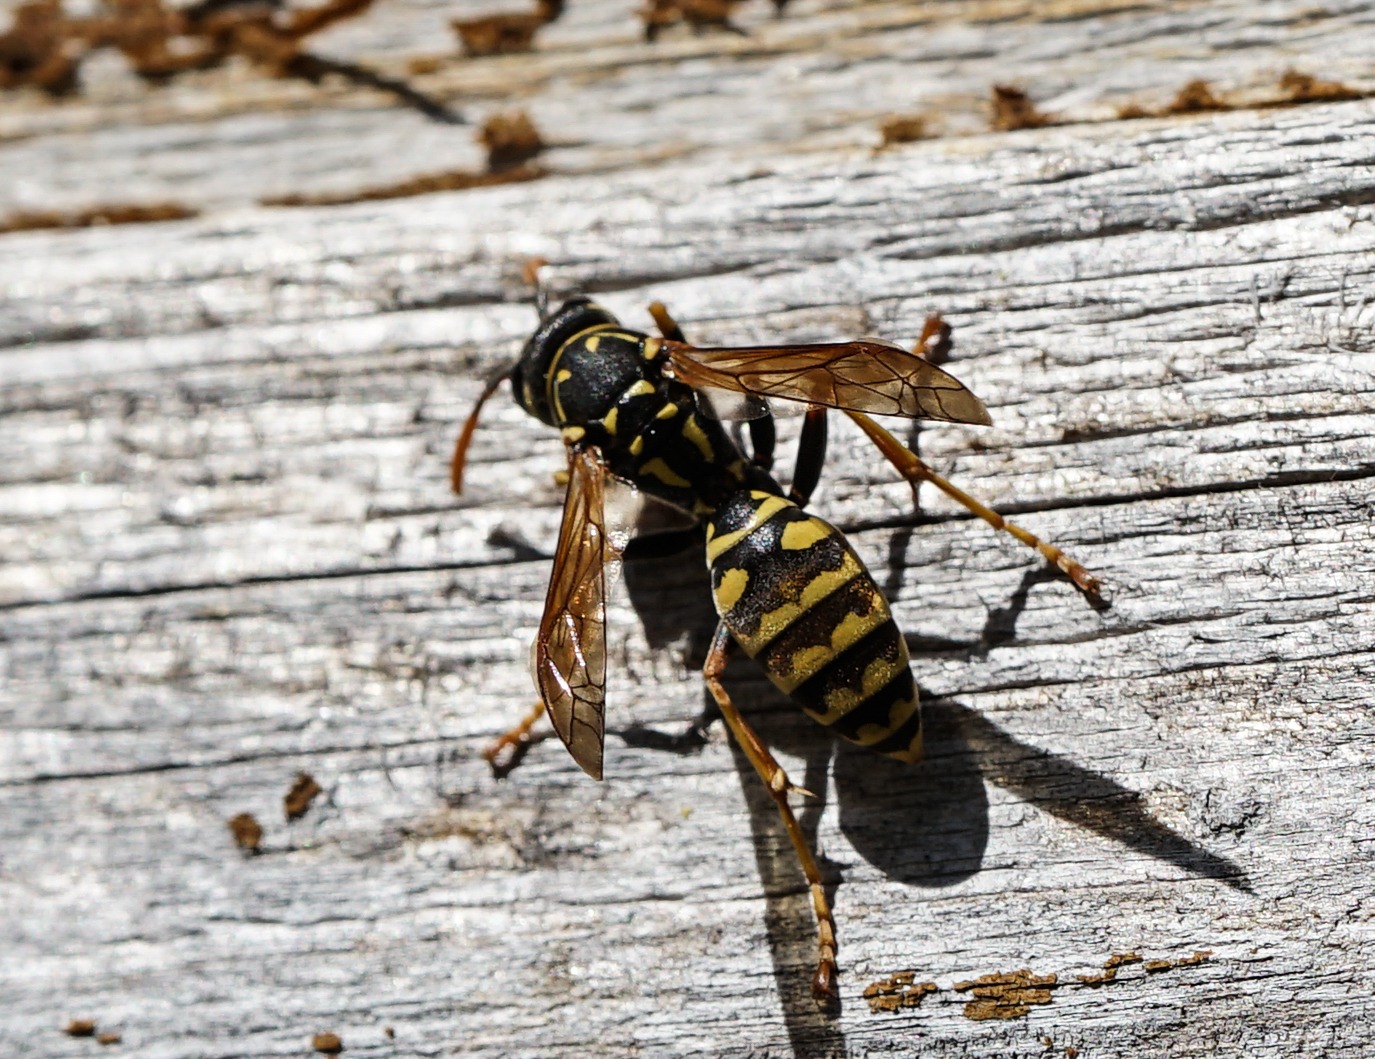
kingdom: Animalia
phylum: Arthropoda
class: Insecta
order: Hymenoptera
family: Eumenidae
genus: Polistes
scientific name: Polistes dominula
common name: Paper wasp
